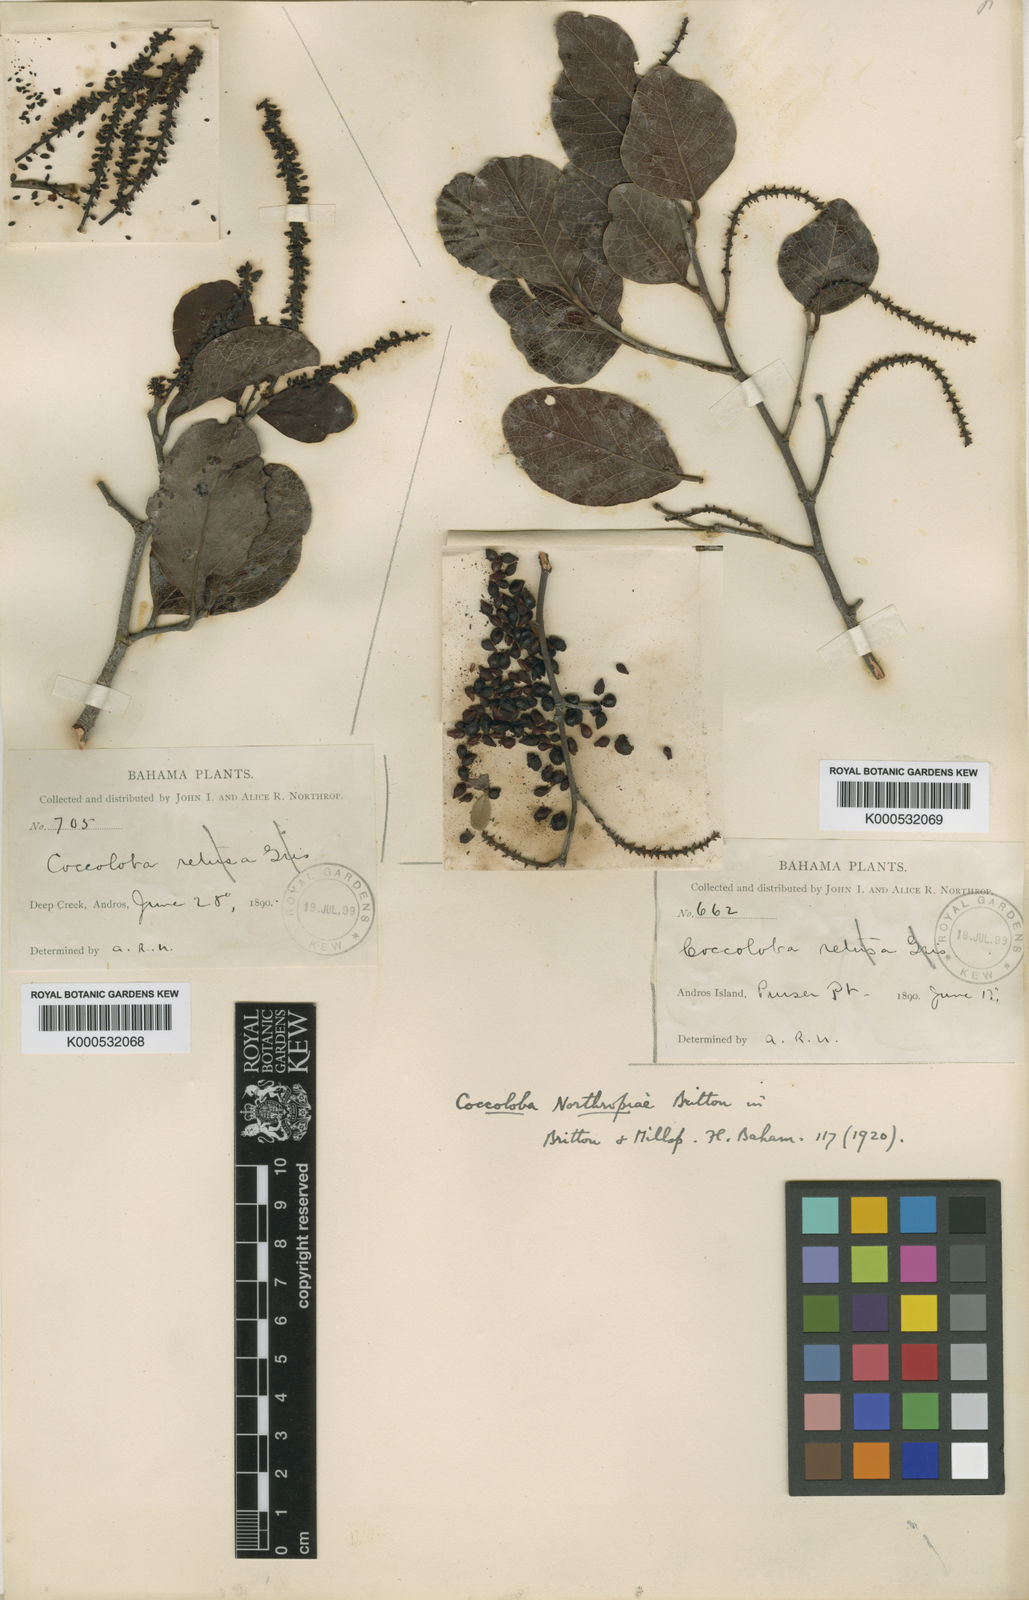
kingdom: Plantae
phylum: Tracheophyta
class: Magnoliopsida
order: Caryophyllales
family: Polygonaceae
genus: Coccoloba
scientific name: Coccoloba northropiae
